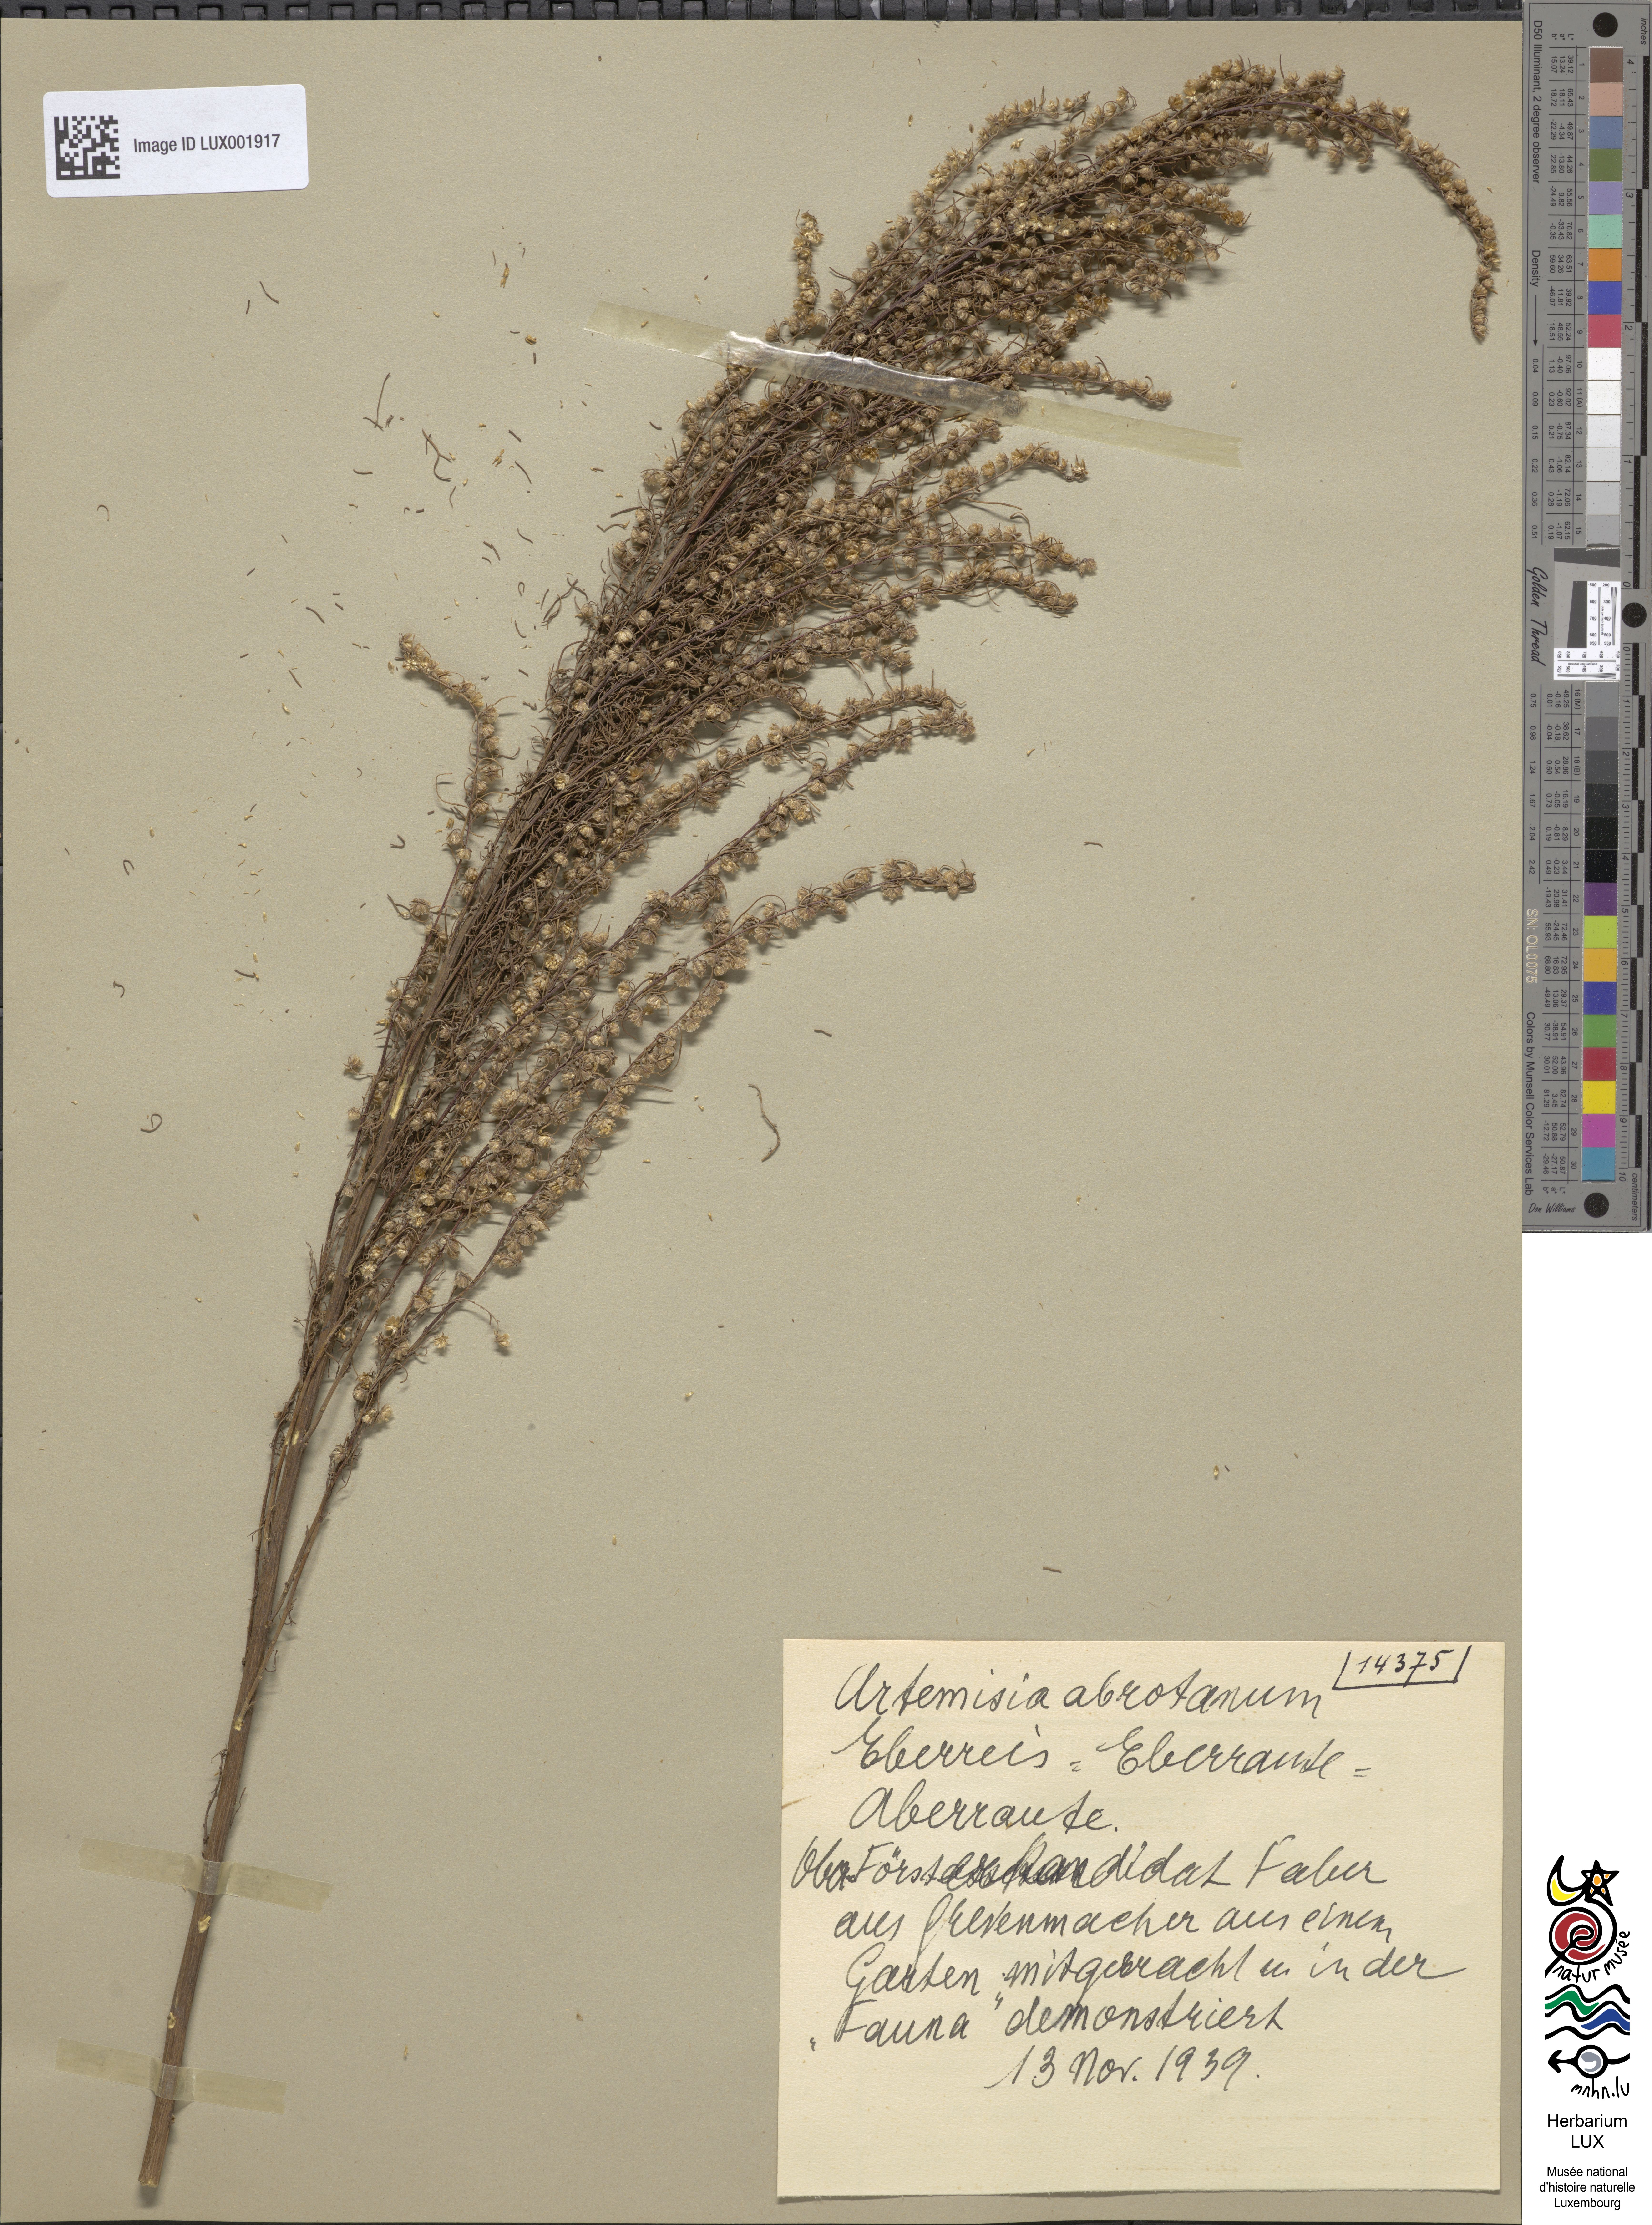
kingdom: Plantae
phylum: Tracheophyta
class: Magnoliopsida
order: Asterales
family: Asteraceae
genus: Artemisia
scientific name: Artemisia abrotanum
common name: Southernwood
